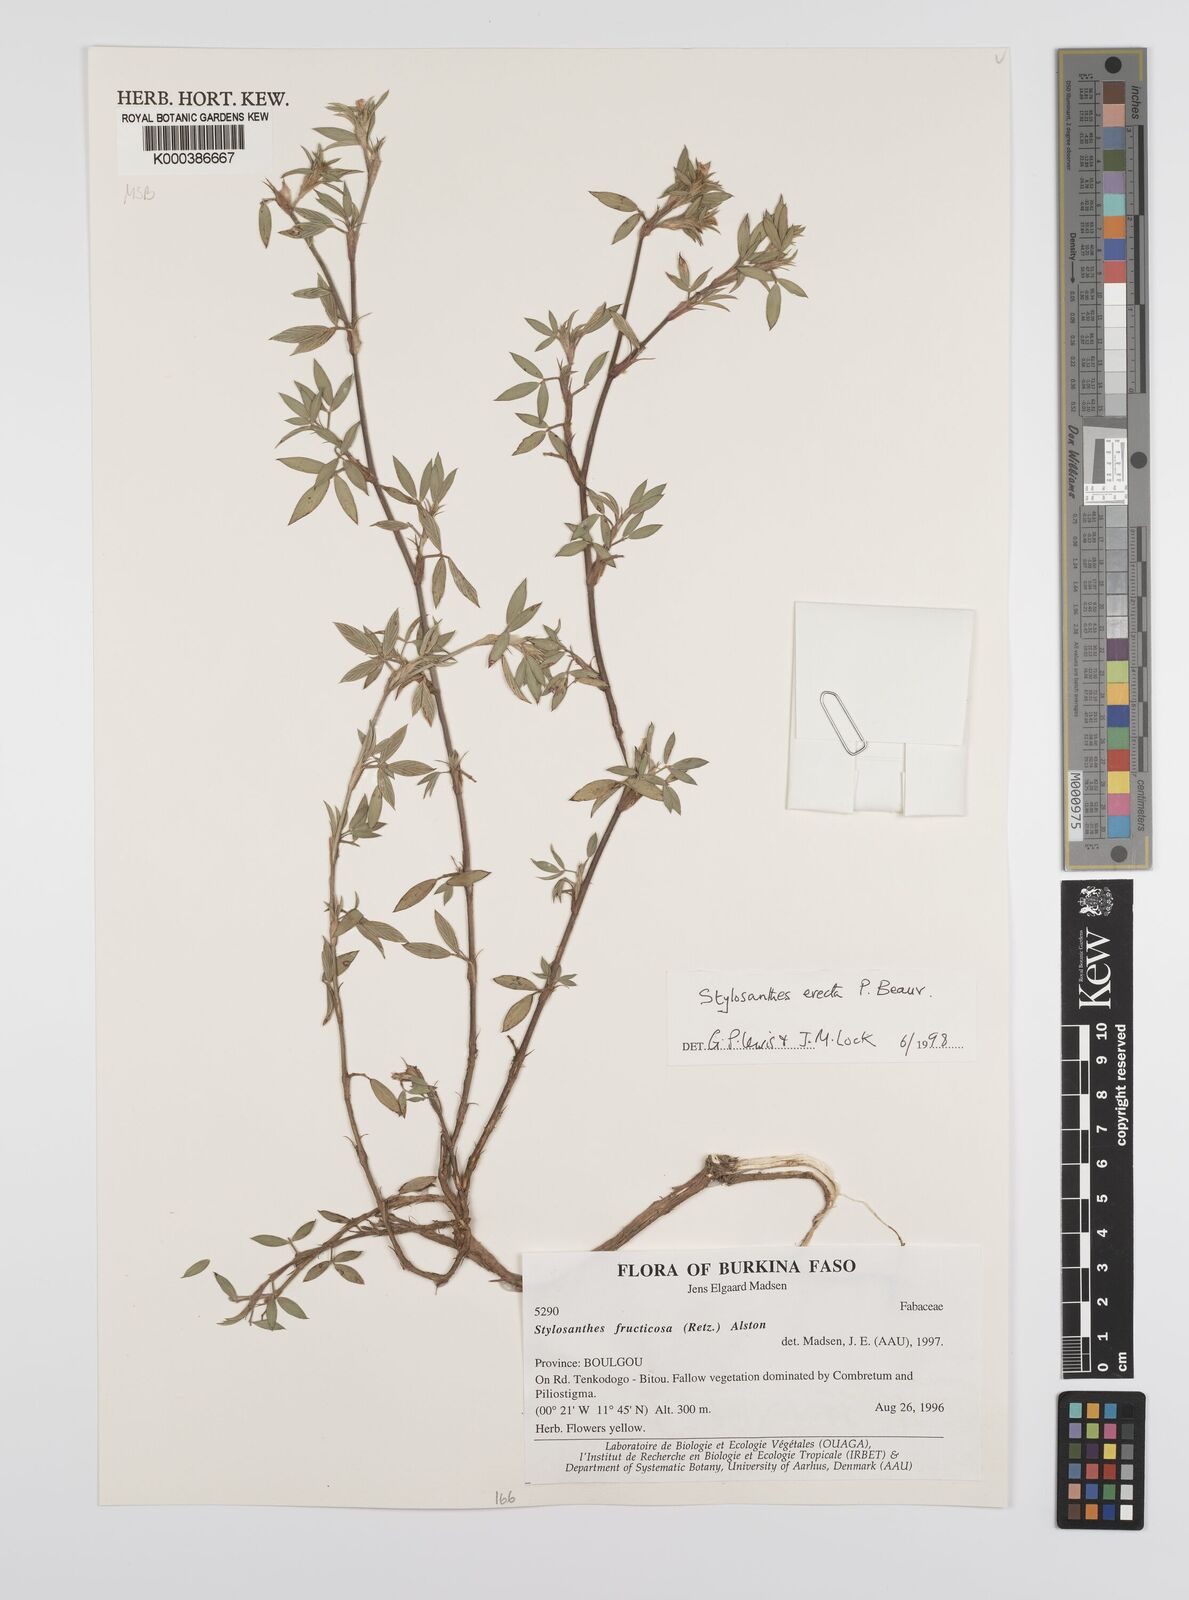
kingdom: Plantae
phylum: Tracheophyta
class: Magnoliopsida
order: Fabales
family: Fabaceae
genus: Stylosanthes
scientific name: Stylosanthes erecta
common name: Nigerian stylo
